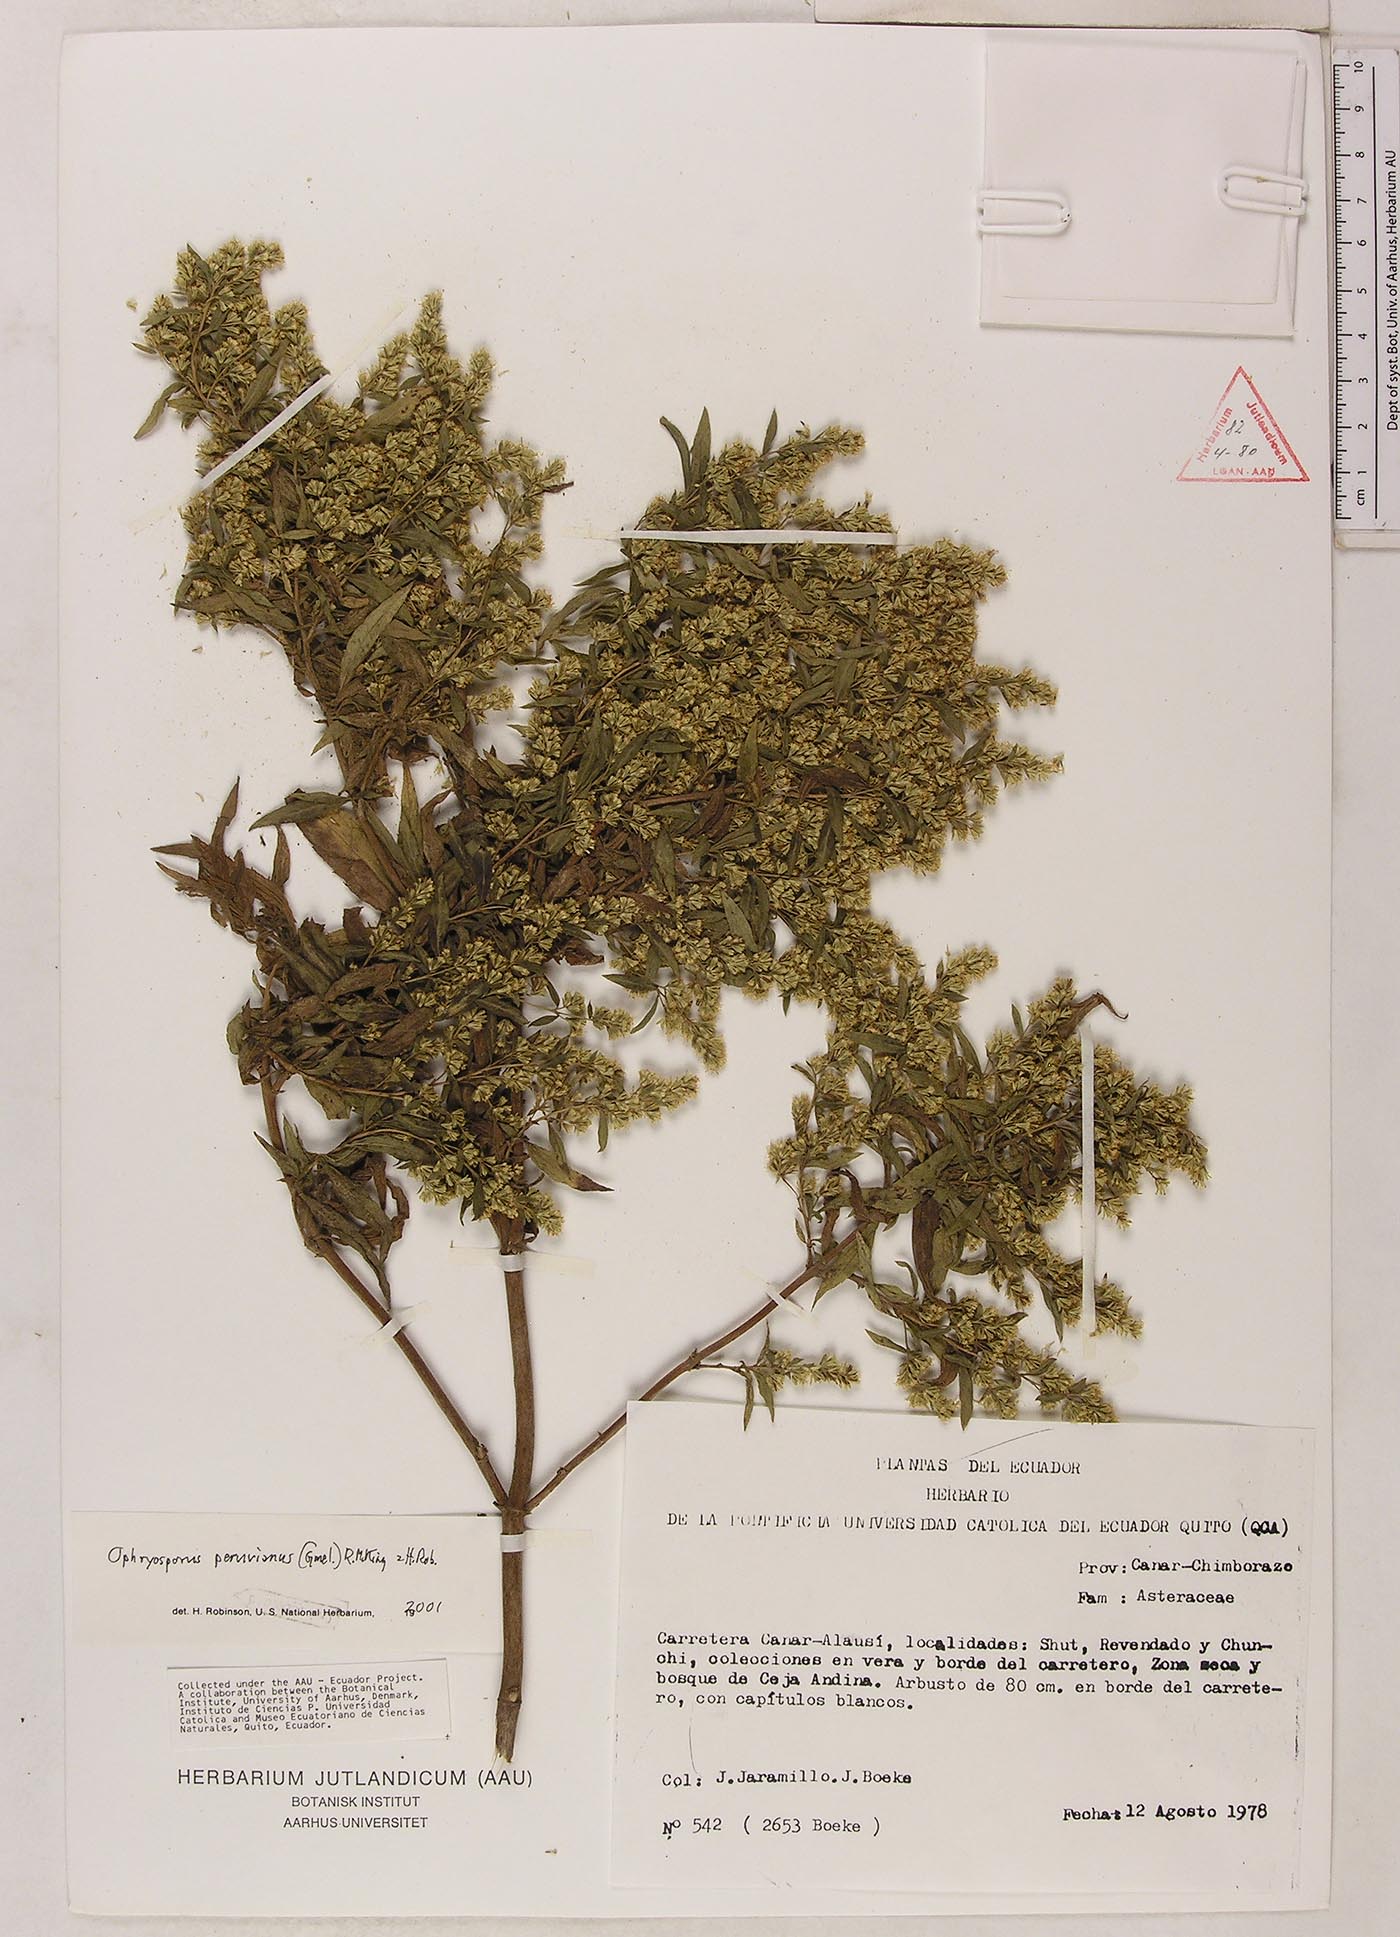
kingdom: Plantae
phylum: Tracheophyta
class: Magnoliopsida
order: Asterales
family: Asteraceae
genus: Ophryosporus
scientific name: Ophryosporus peruvianus
